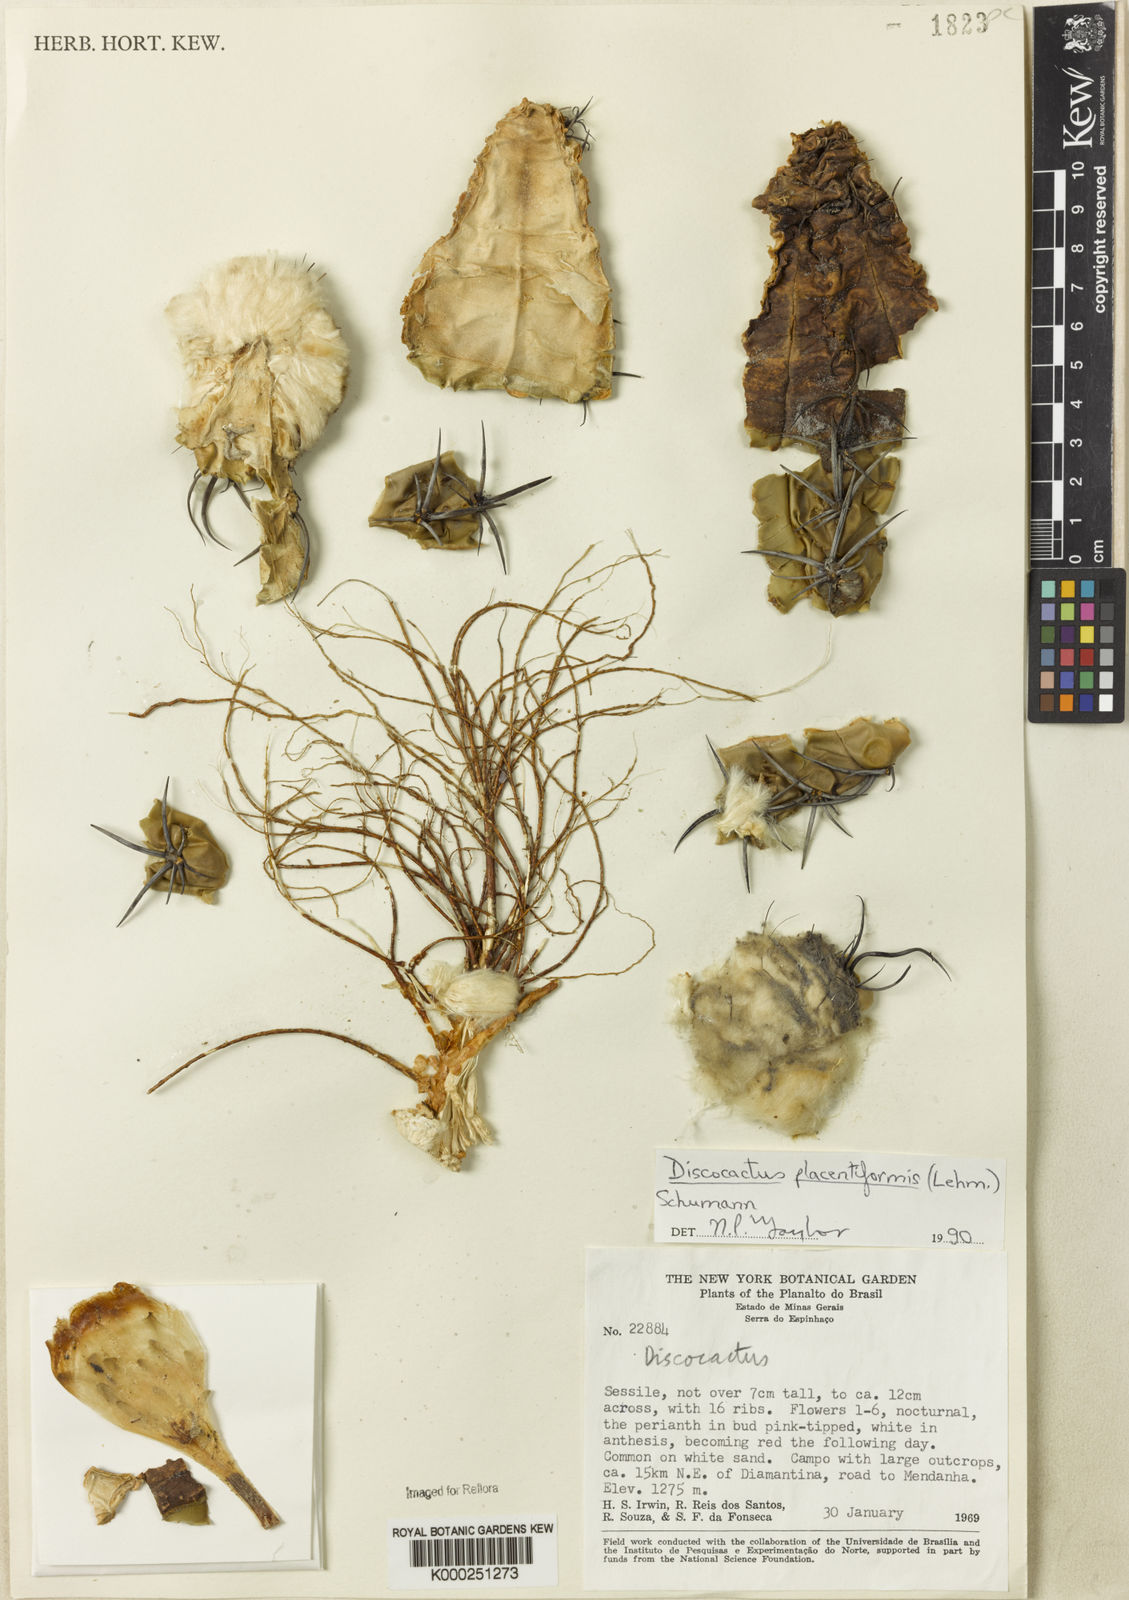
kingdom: Plantae
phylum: Tracheophyta
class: Magnoliopsida
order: Caryophyllales
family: Cactaceae
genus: Discocactus
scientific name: Discocactus placentiformis
